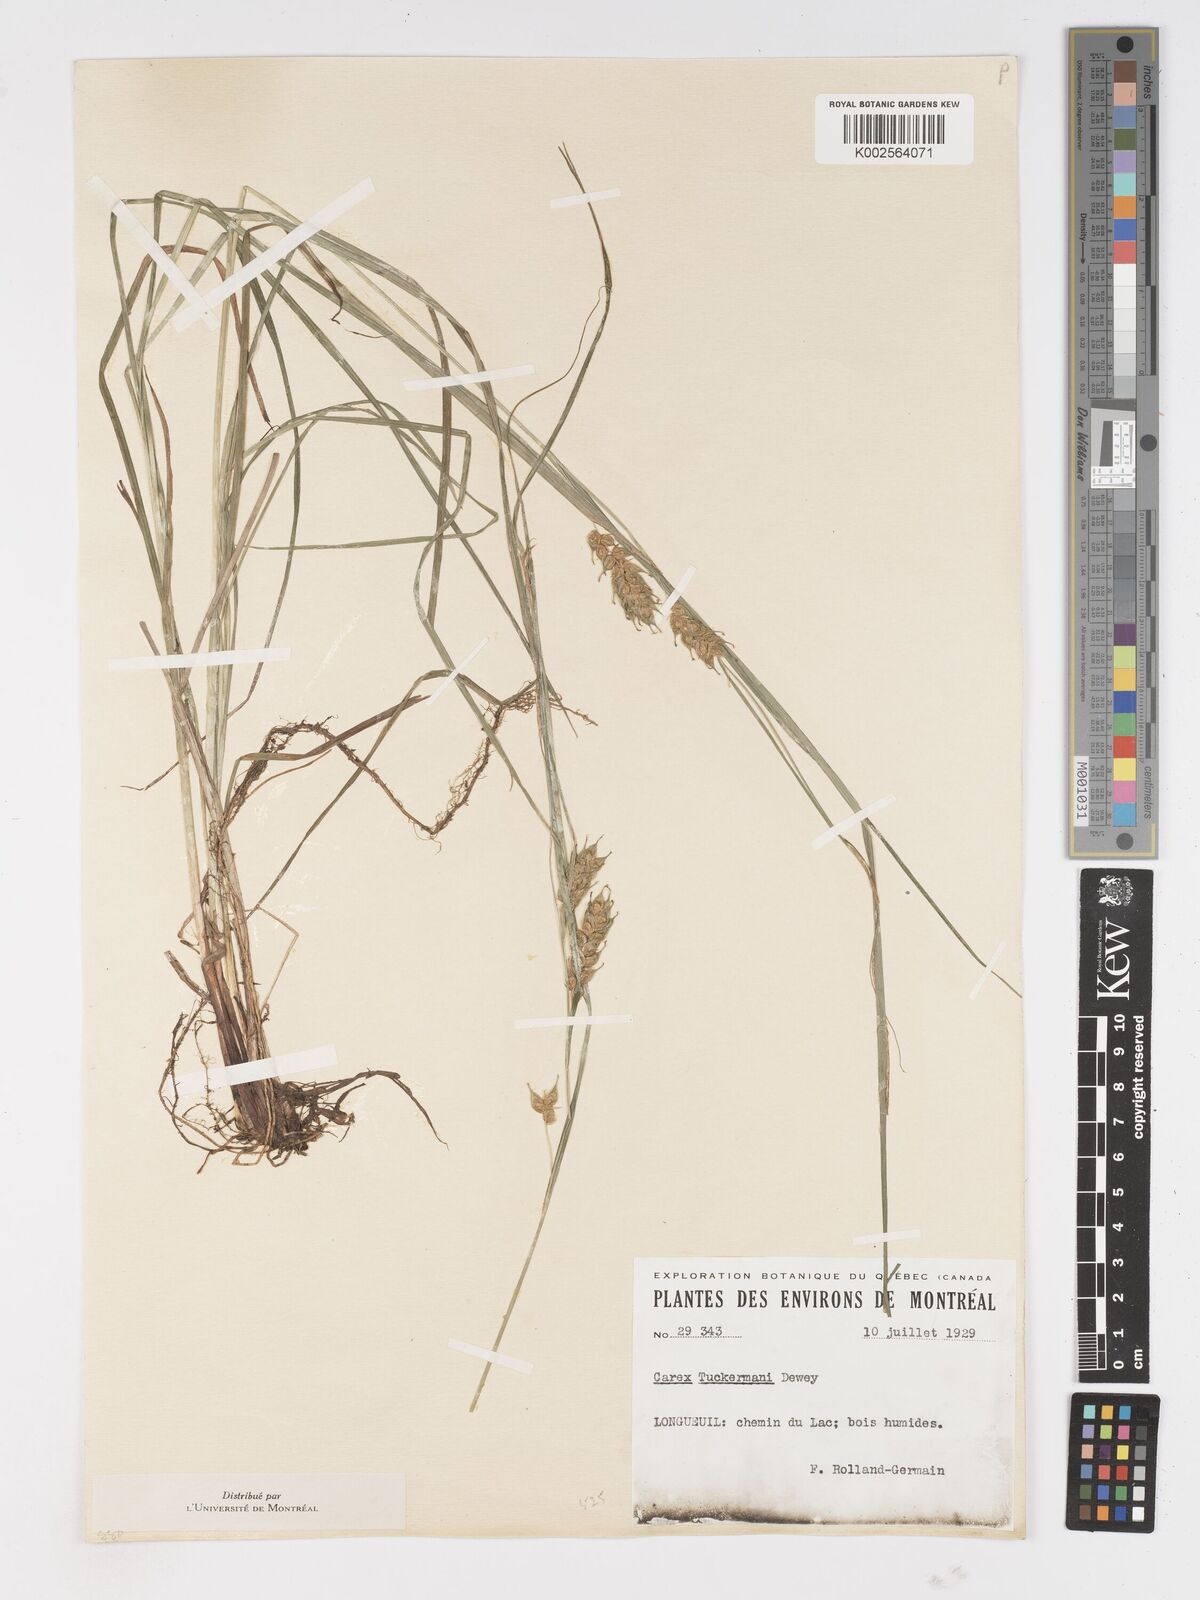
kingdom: Plantae
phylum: Tracheophyta
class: Liliopsida
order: Poales
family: Cyperaceae
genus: Carex
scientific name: Carex tuckermanii
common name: Tuckerman's sedge
